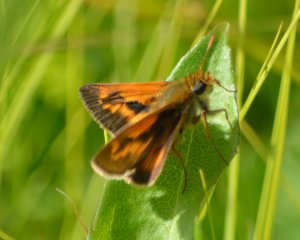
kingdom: Animalia
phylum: Arthropoda
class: Insecta
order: Lepidoptera
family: Hesperiidae
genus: Polites
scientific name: Polites
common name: Long Dash Skipper
